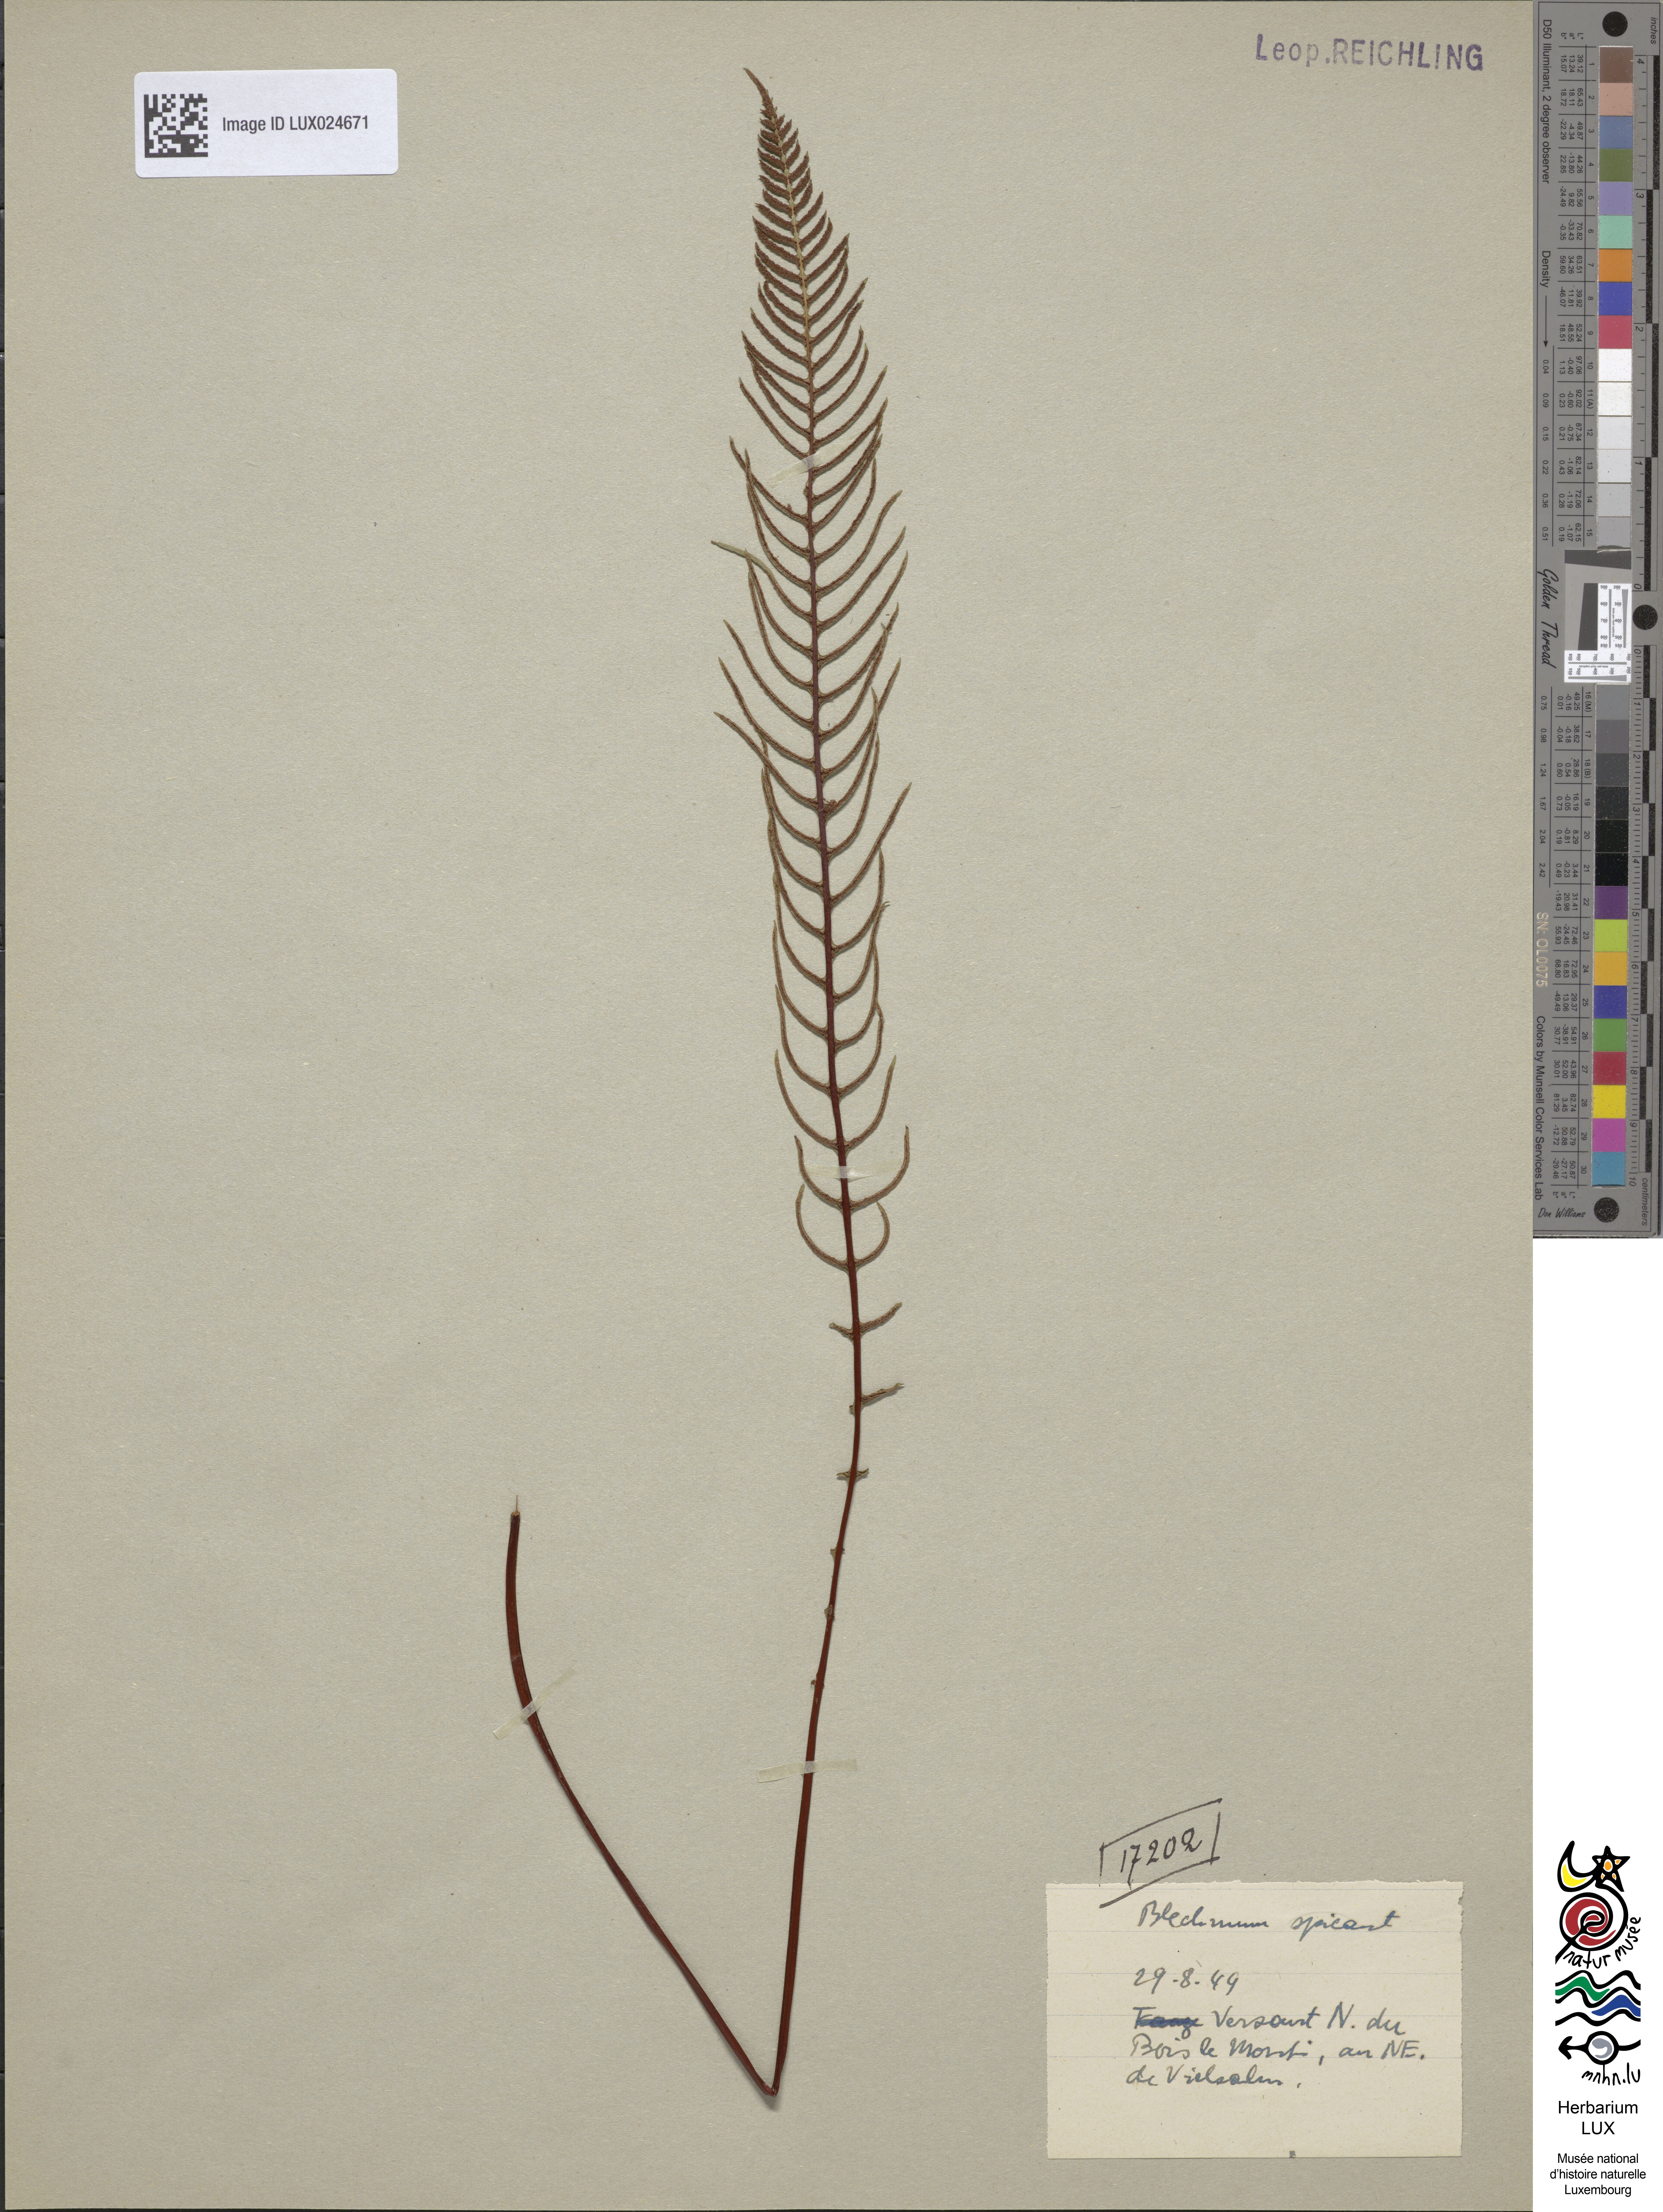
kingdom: Plantae
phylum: Tracheophyta
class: Polypodiopsida
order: Polypodiales
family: Blechnaceae
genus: Struthiopteris
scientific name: Struthiopteris spicant
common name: Deer fern
